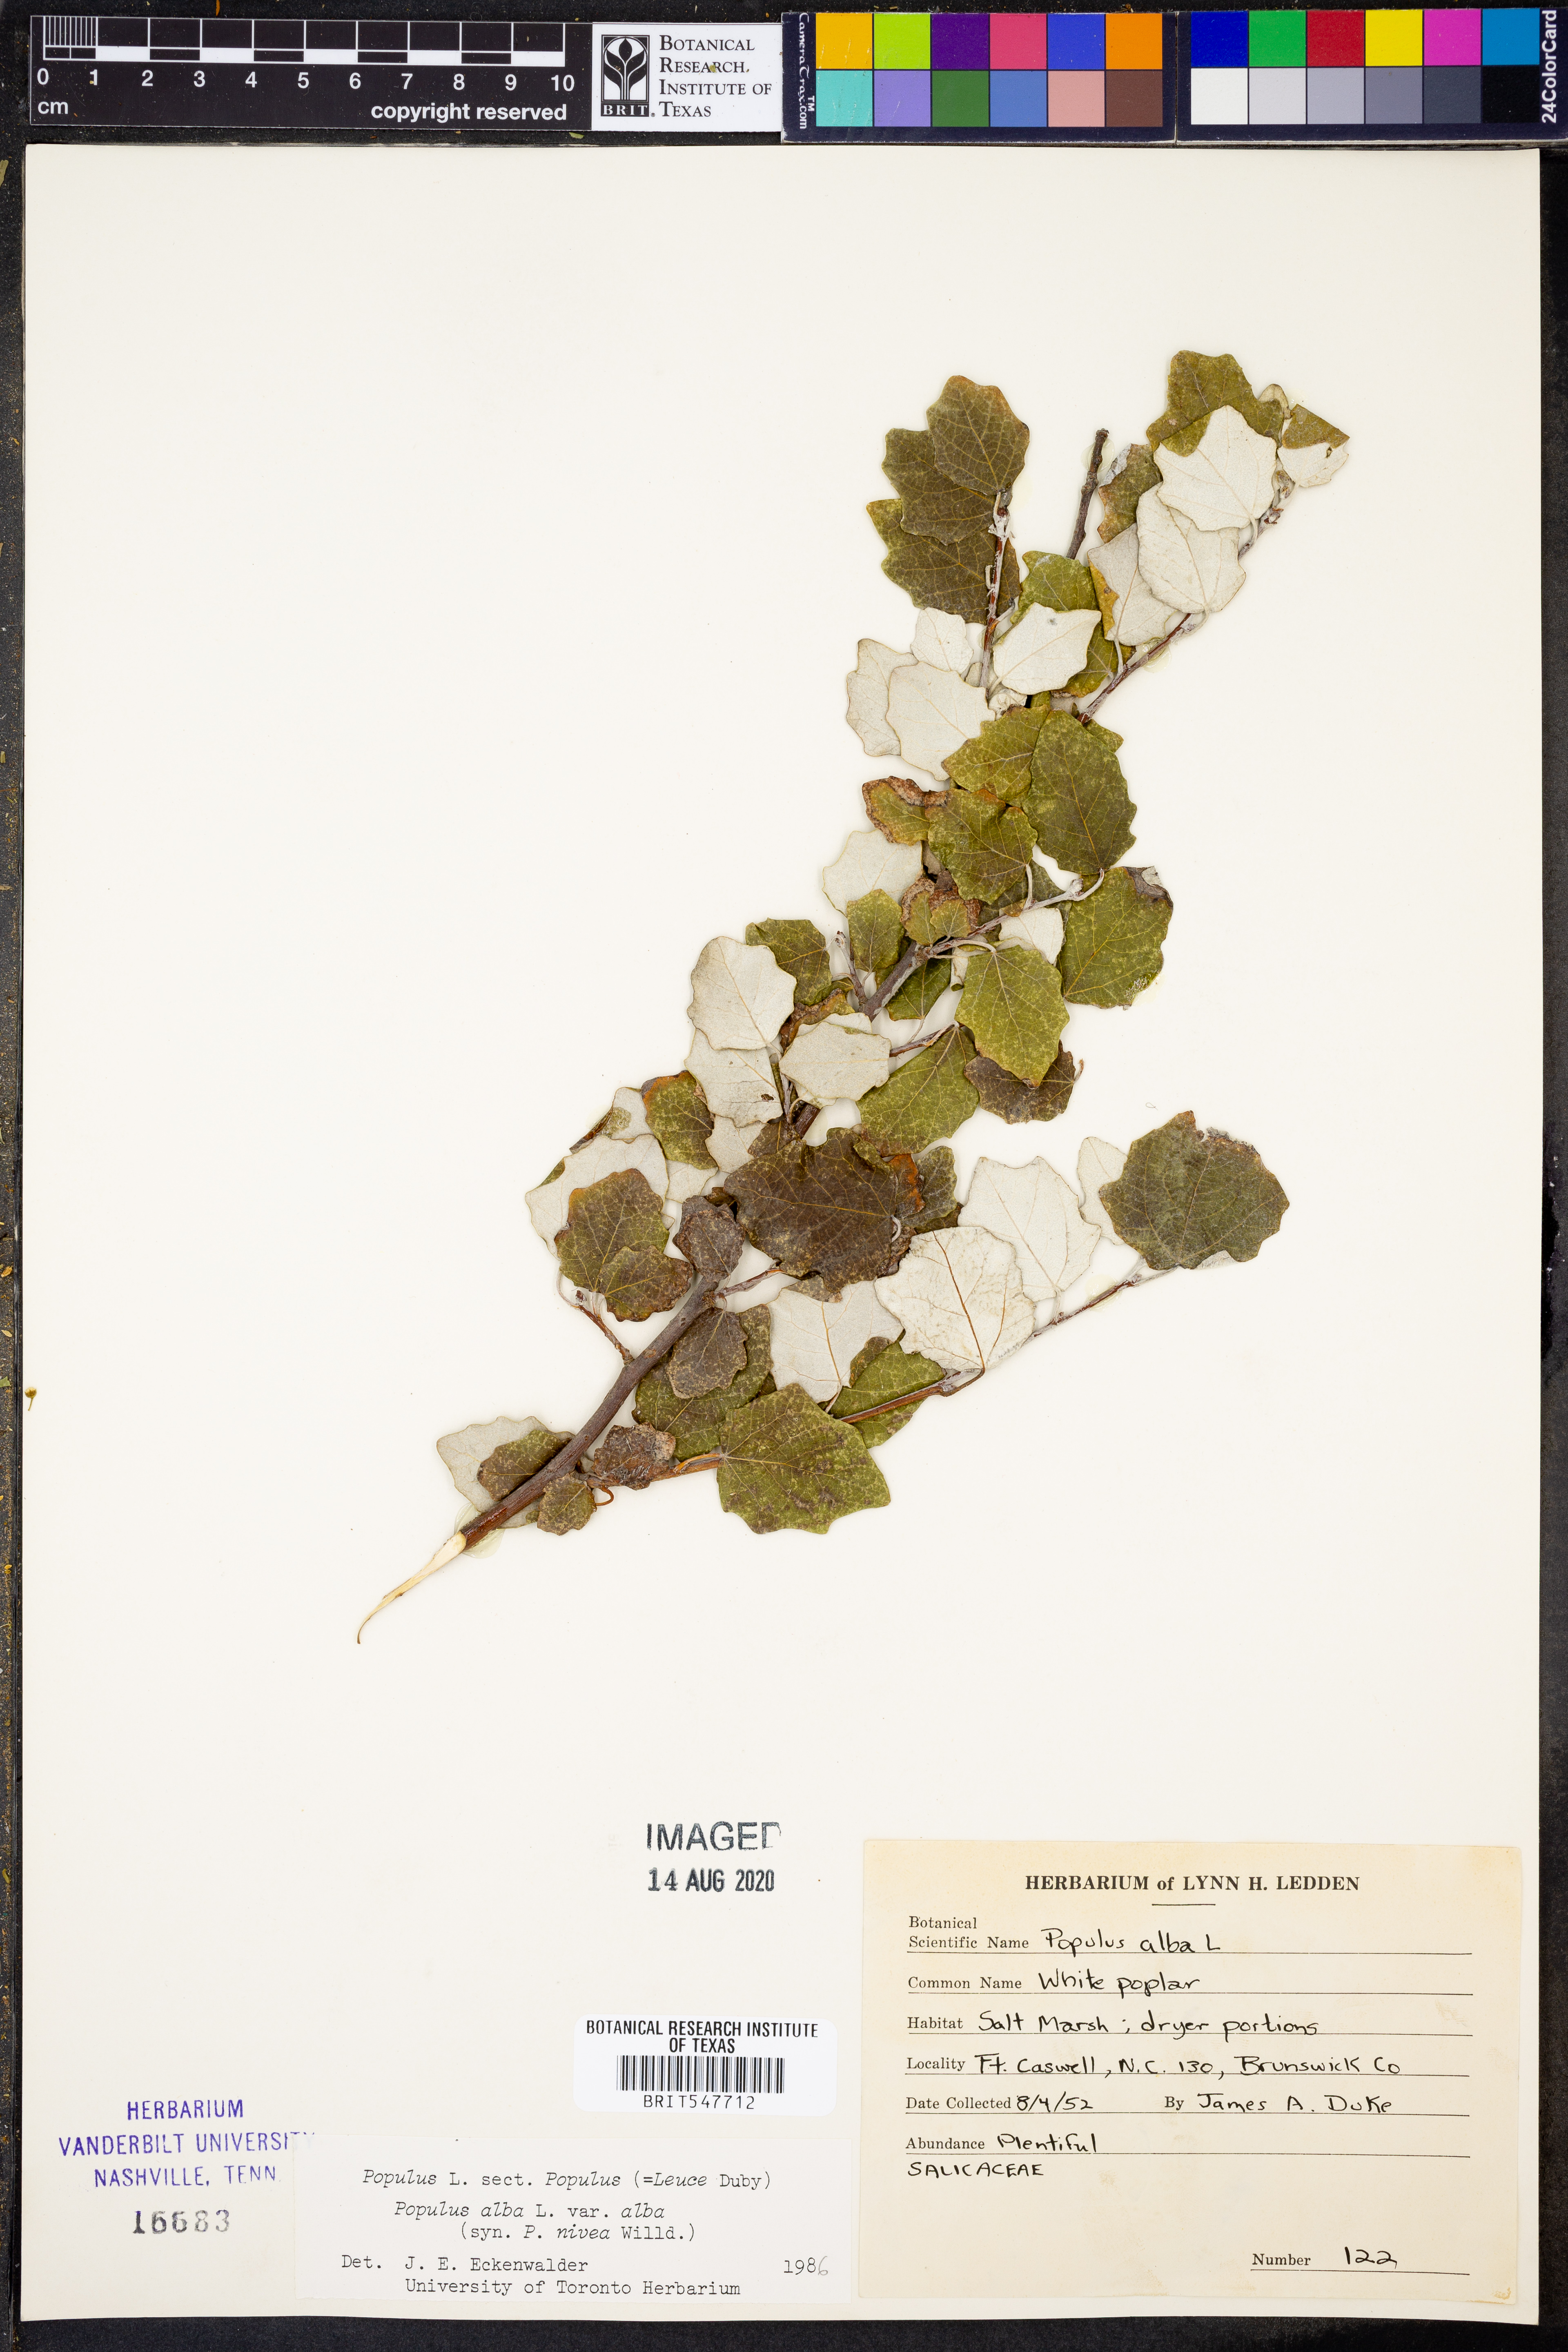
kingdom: Plantae
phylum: Tracheophyta
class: Magnoliopsida
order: Malpighiales
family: Salicaceae
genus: Populus
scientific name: Populus alba
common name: White poplar
